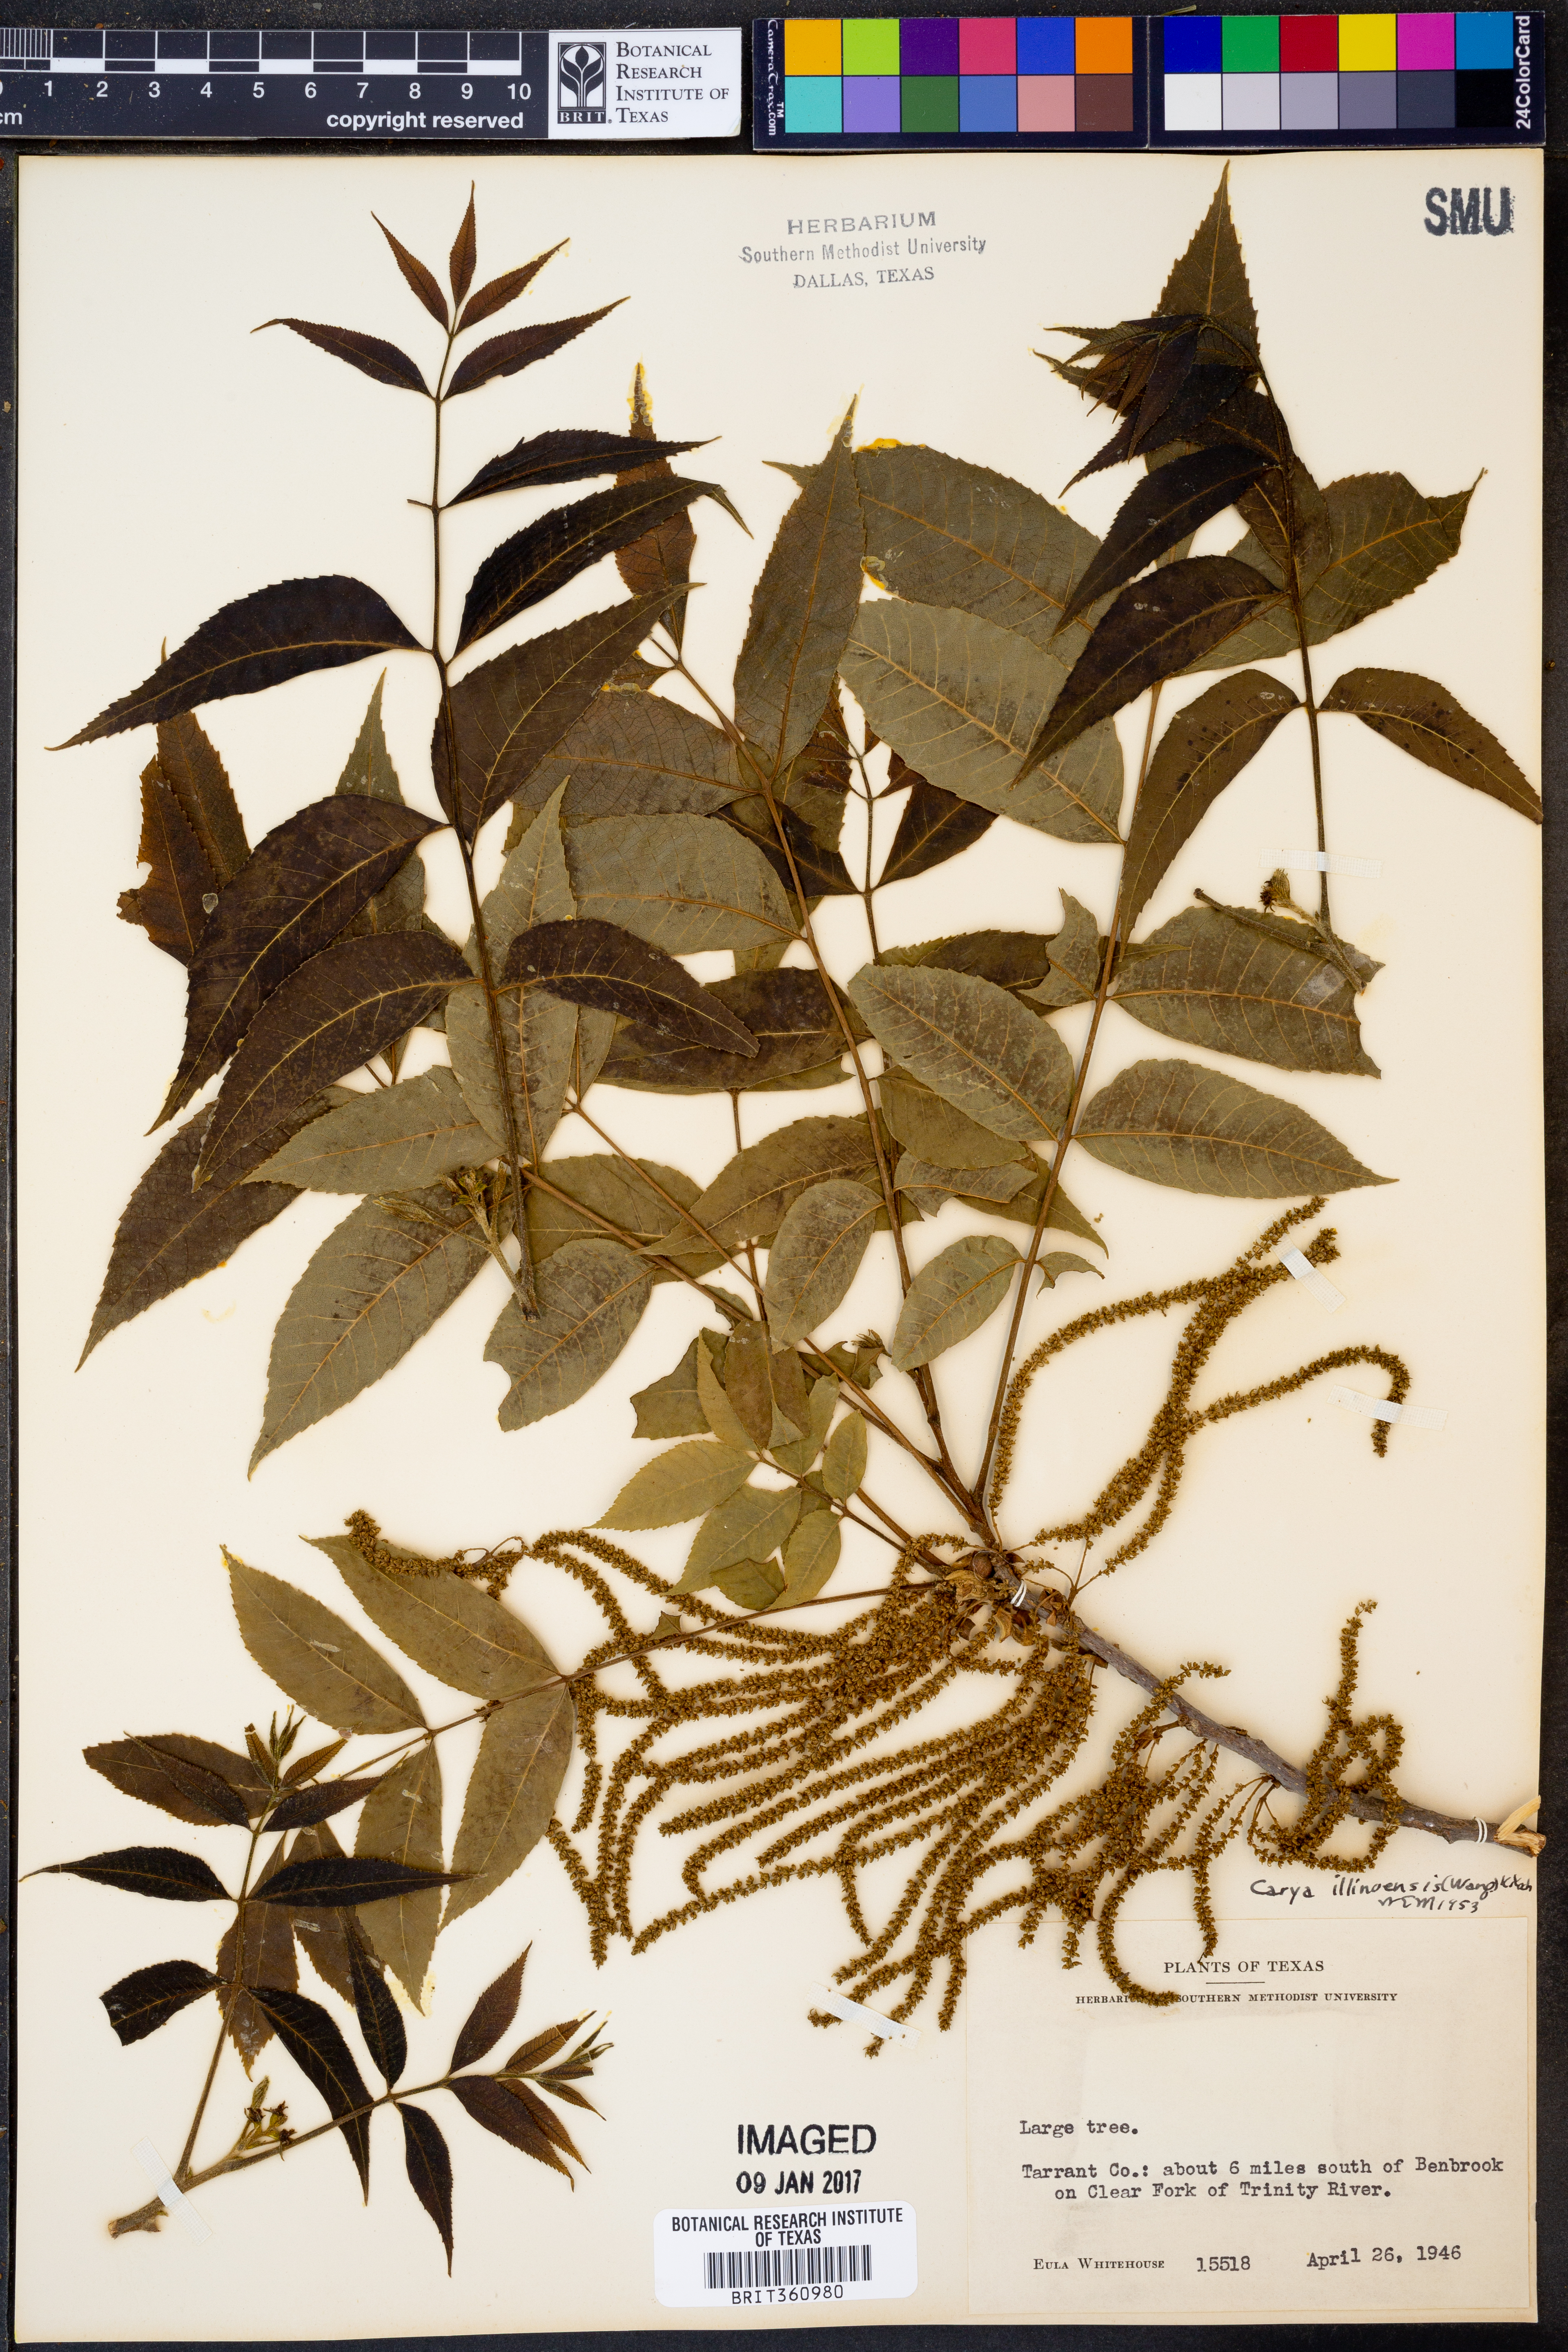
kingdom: Plantae
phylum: Tracheophyta
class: Magnoliopsida
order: Fagales
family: Juglandaceae
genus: Carya
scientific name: Carya illinoinensis
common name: Pecan
